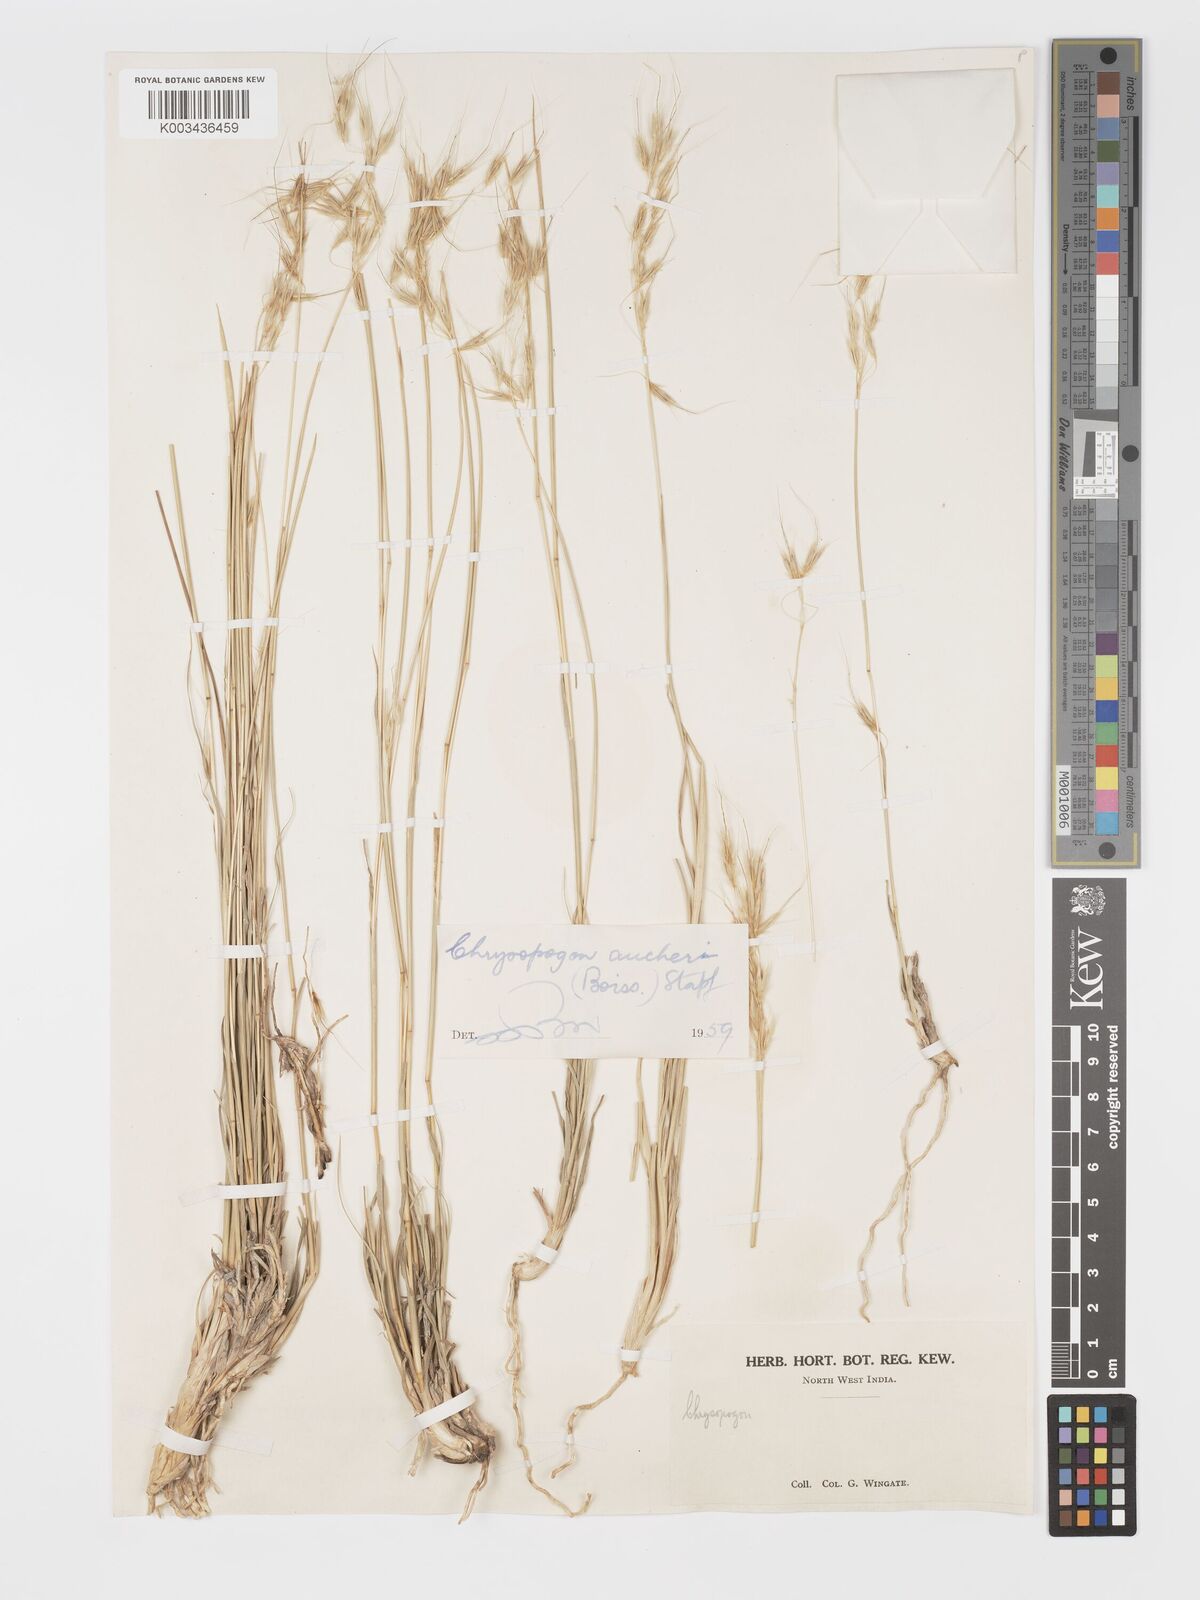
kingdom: Plantae
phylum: Tracheophyta
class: Liliopsida
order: Poales
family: Poaceae
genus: Chrysopogon
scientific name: Chrysopogon aucheri
